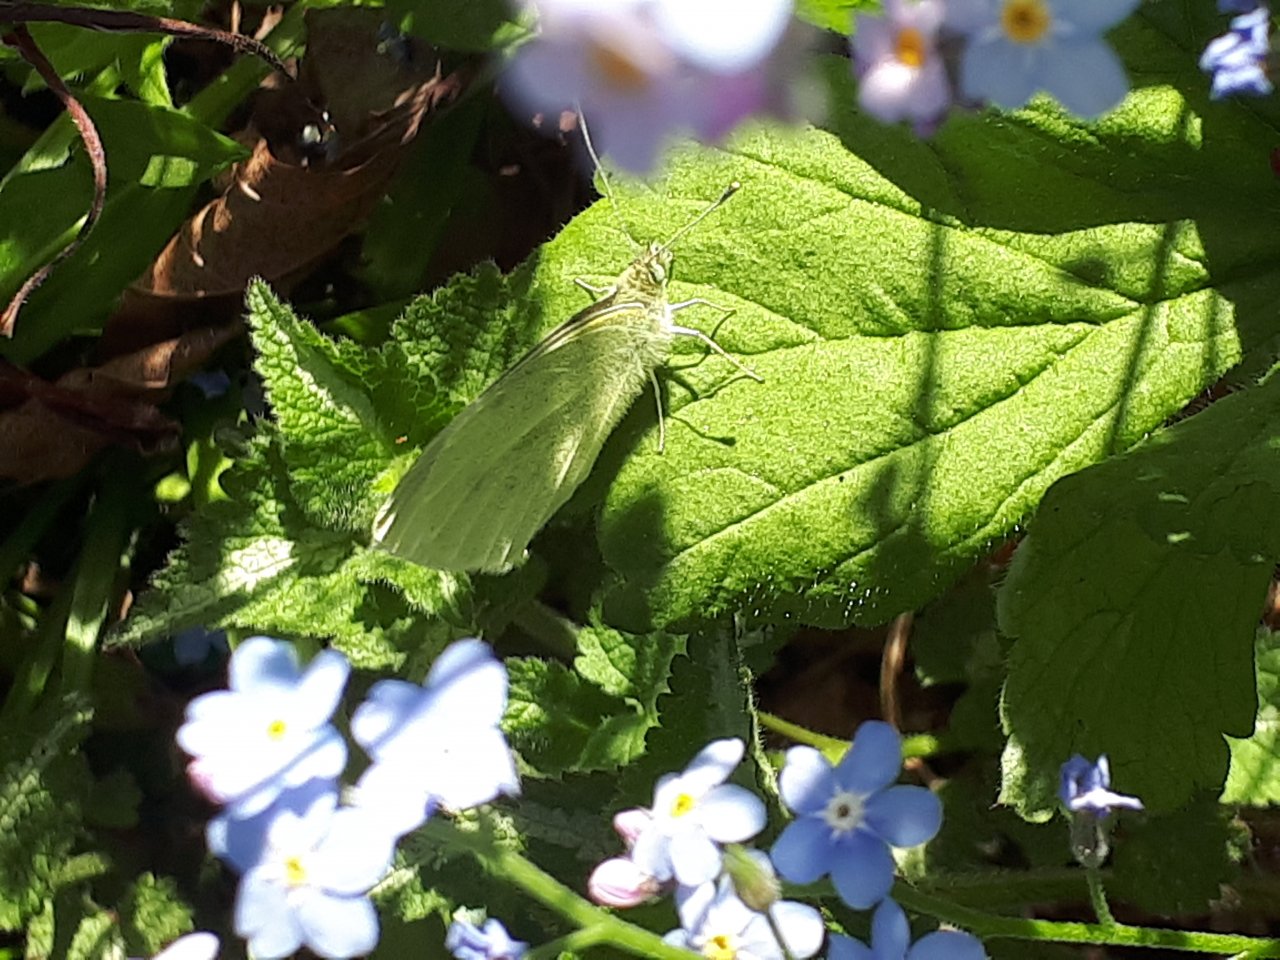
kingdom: Animalia
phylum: Arthropoda
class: Insecta
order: Lepidoptera
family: Pieridae
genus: Pieris
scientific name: Pieris rapae
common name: Cabbage White
